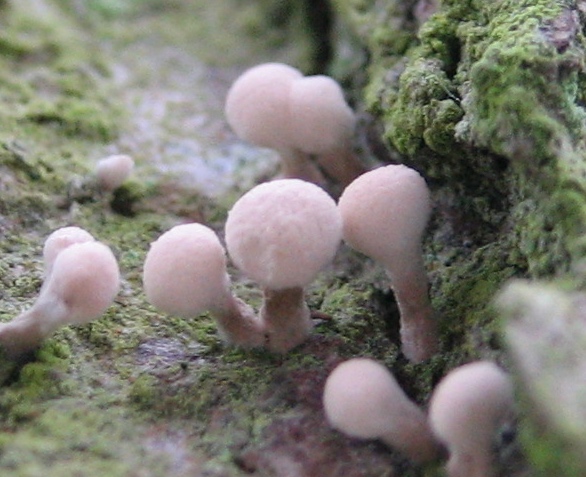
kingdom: Fungi
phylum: Basidiomycota
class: Atractiellomycetes
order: Atractiellales
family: Phleogenaceae
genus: Phleogena
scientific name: Phleogena faginea
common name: pudderkølle
